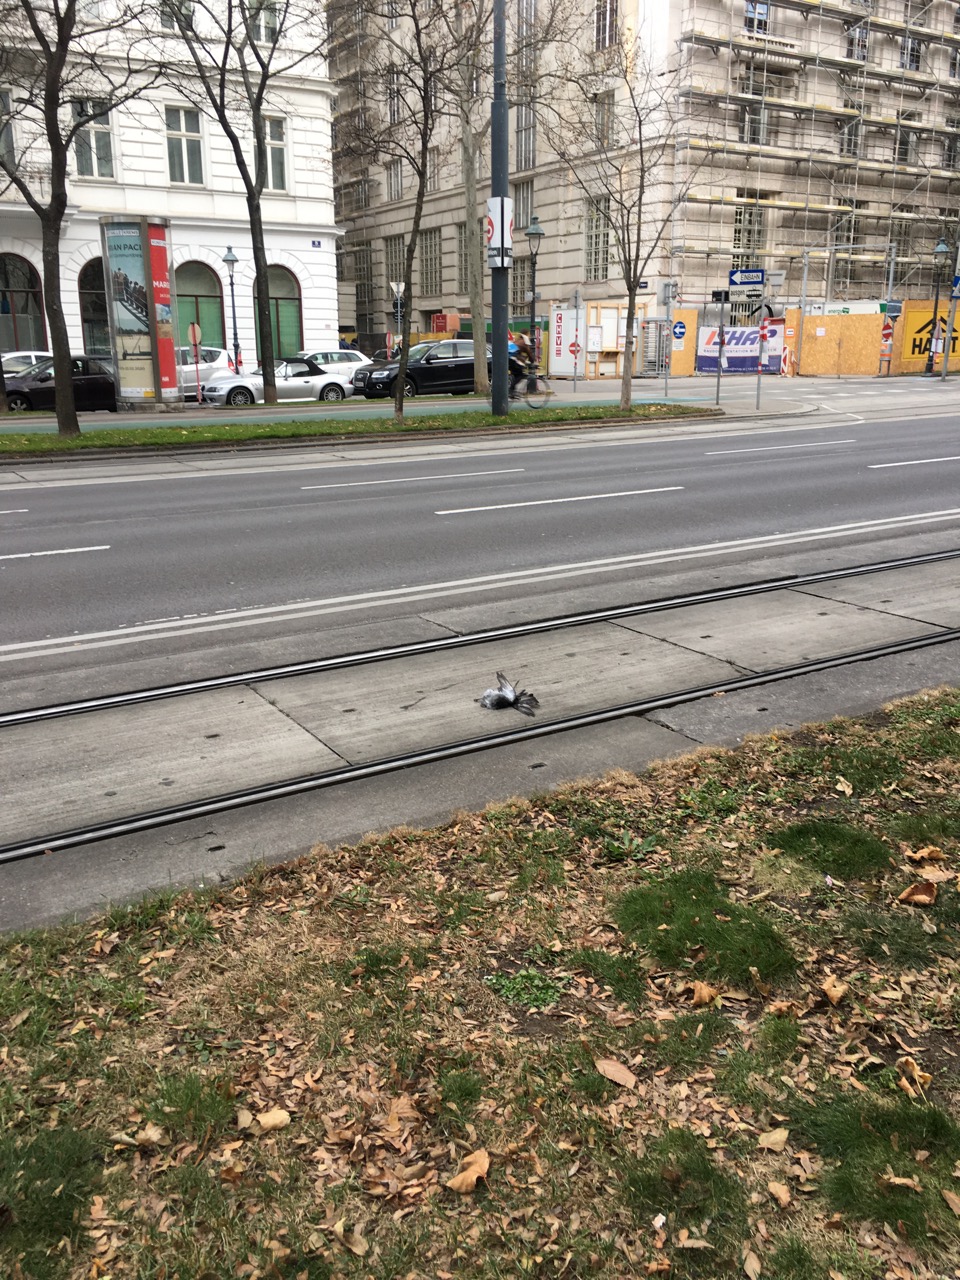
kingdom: Animalia
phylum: Chordata
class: Aves
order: Columbiformes
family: Columbidae
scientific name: Columbidae
